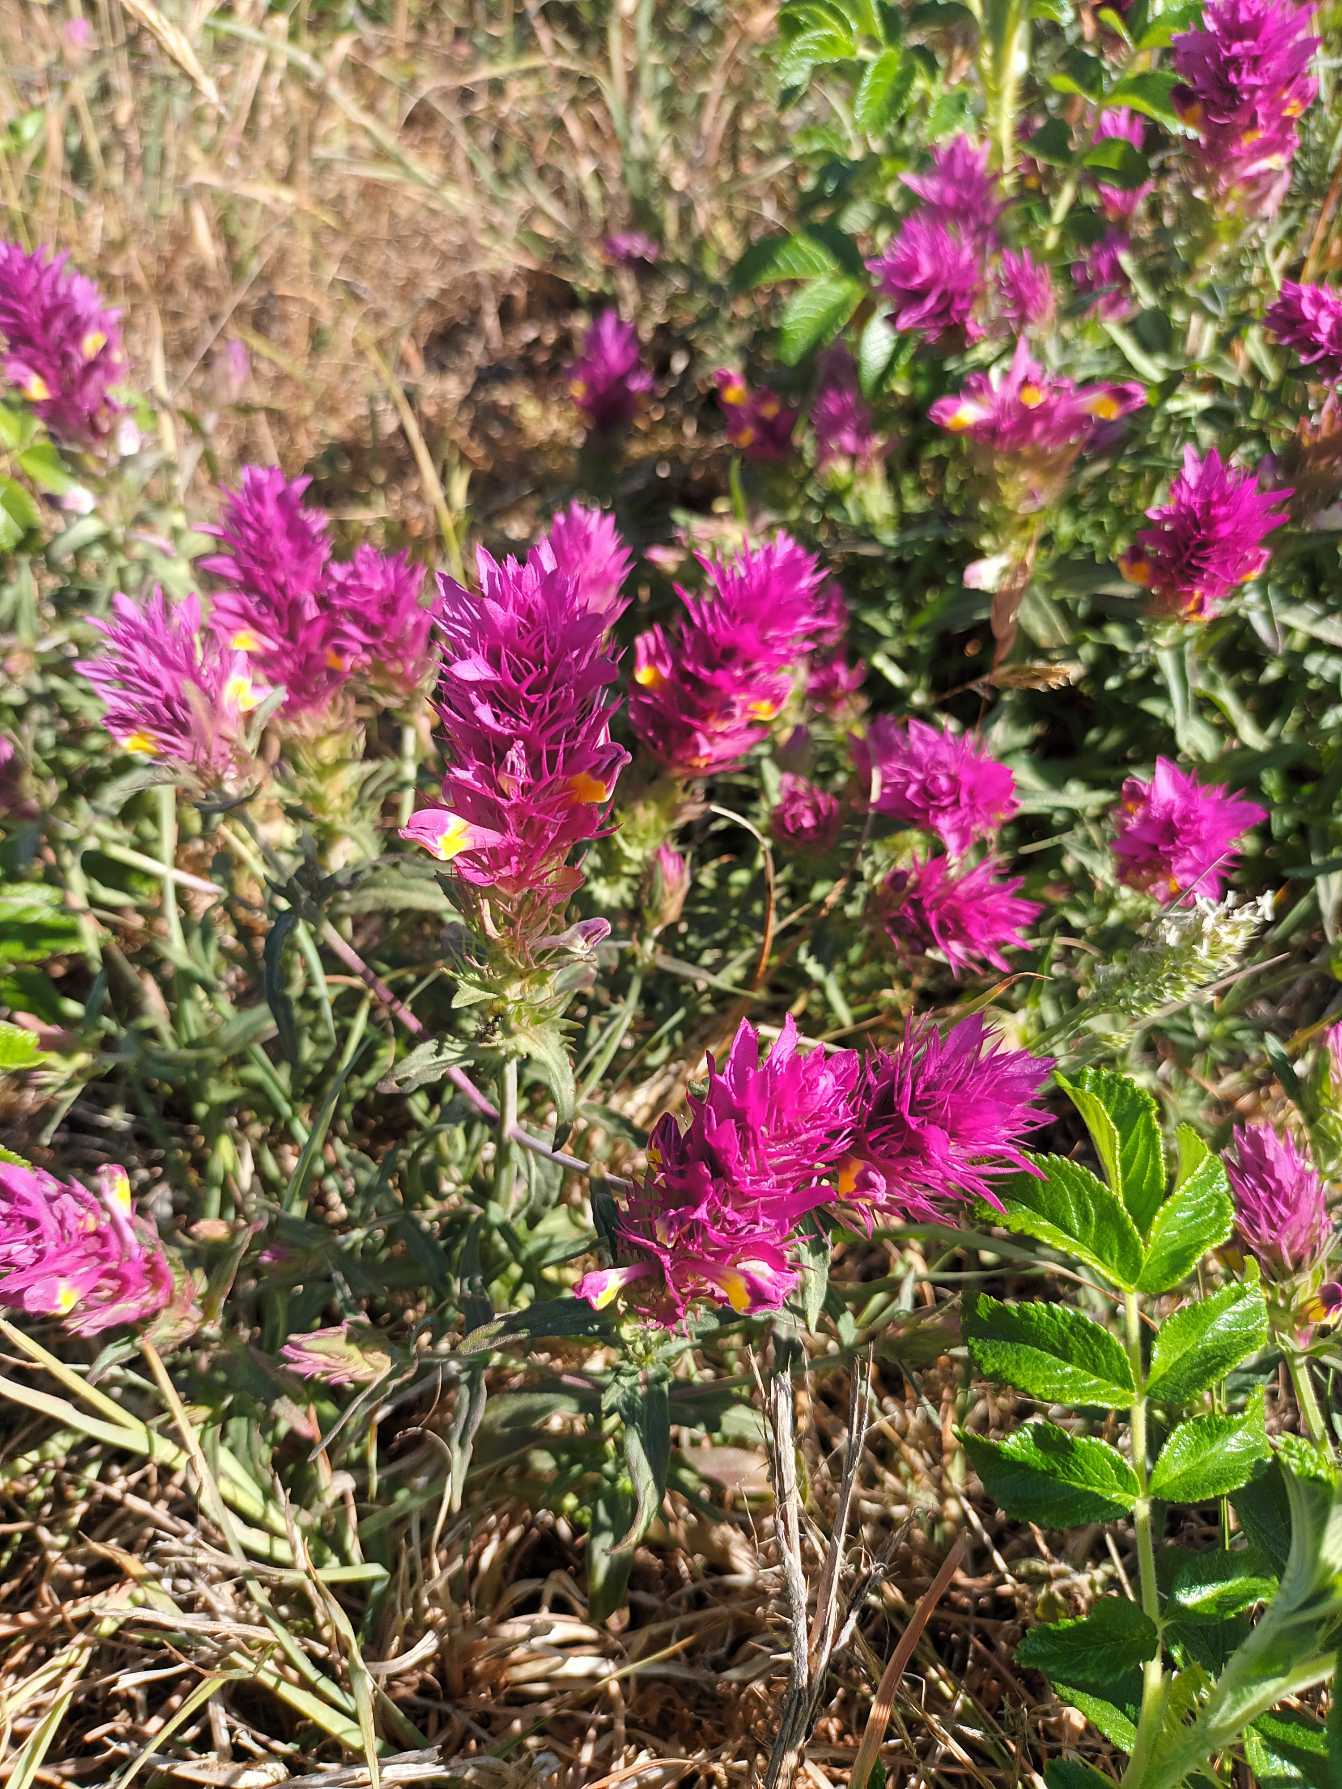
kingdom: Plantae
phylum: Tracheophyta
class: Magnoliopsida
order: Lamiales
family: Orobanchaceae
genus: Melampyrum
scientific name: Melampyrum arvense
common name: Ager-kohvede
